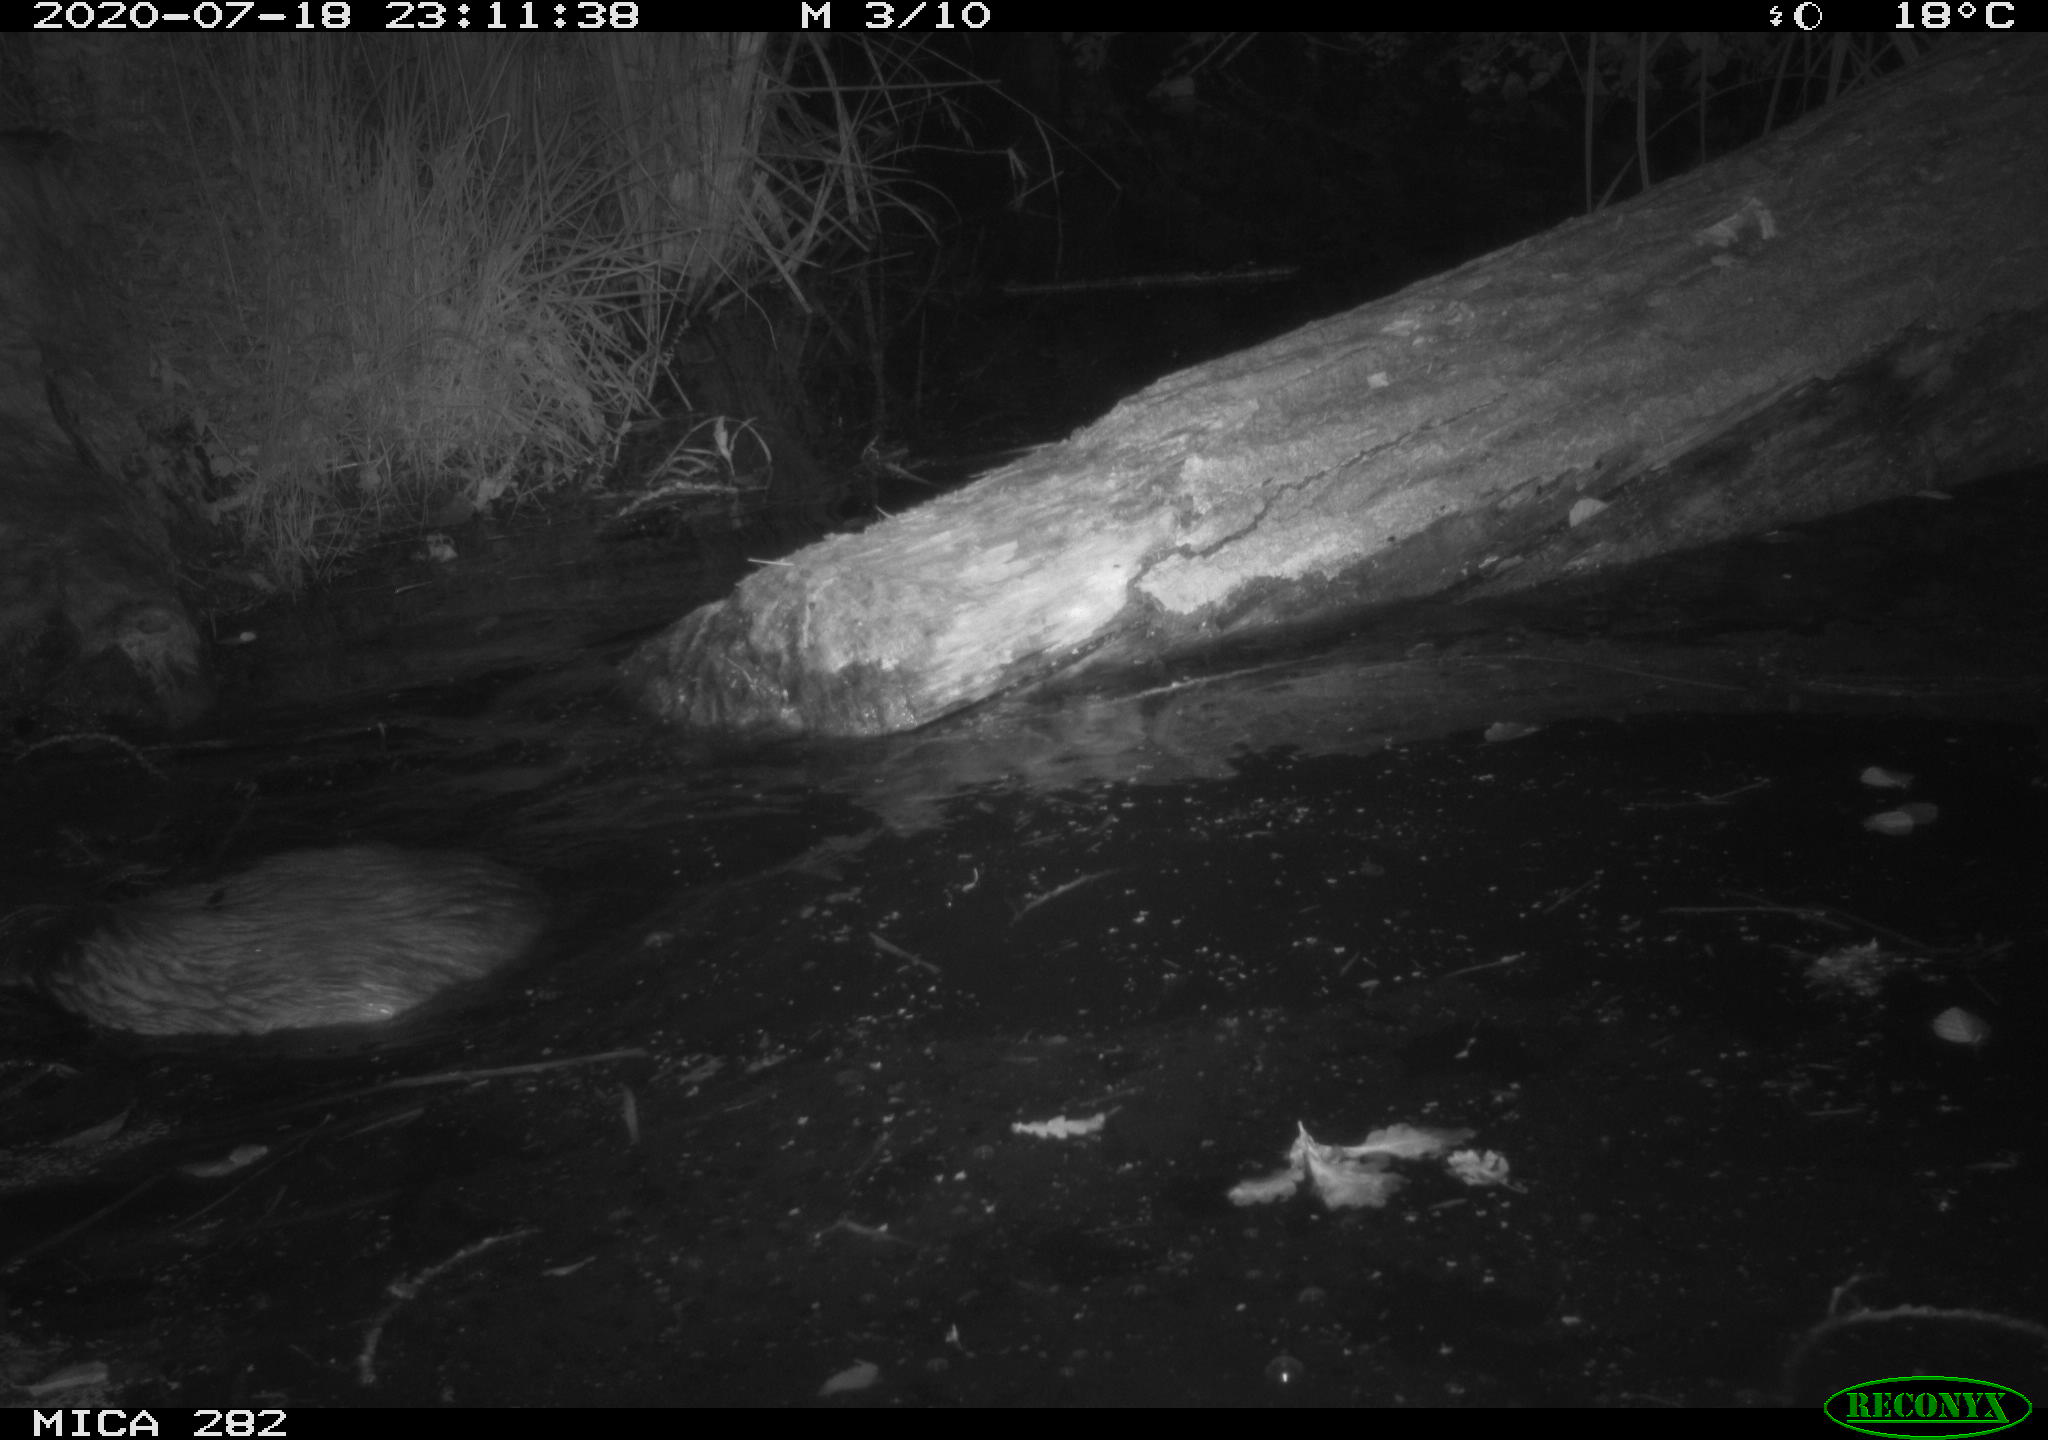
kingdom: Animalia
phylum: Chordata
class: Mammalia
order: Rodentia
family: Castoridae
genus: Castor
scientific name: Castor fiber
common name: Eurasian beaver
